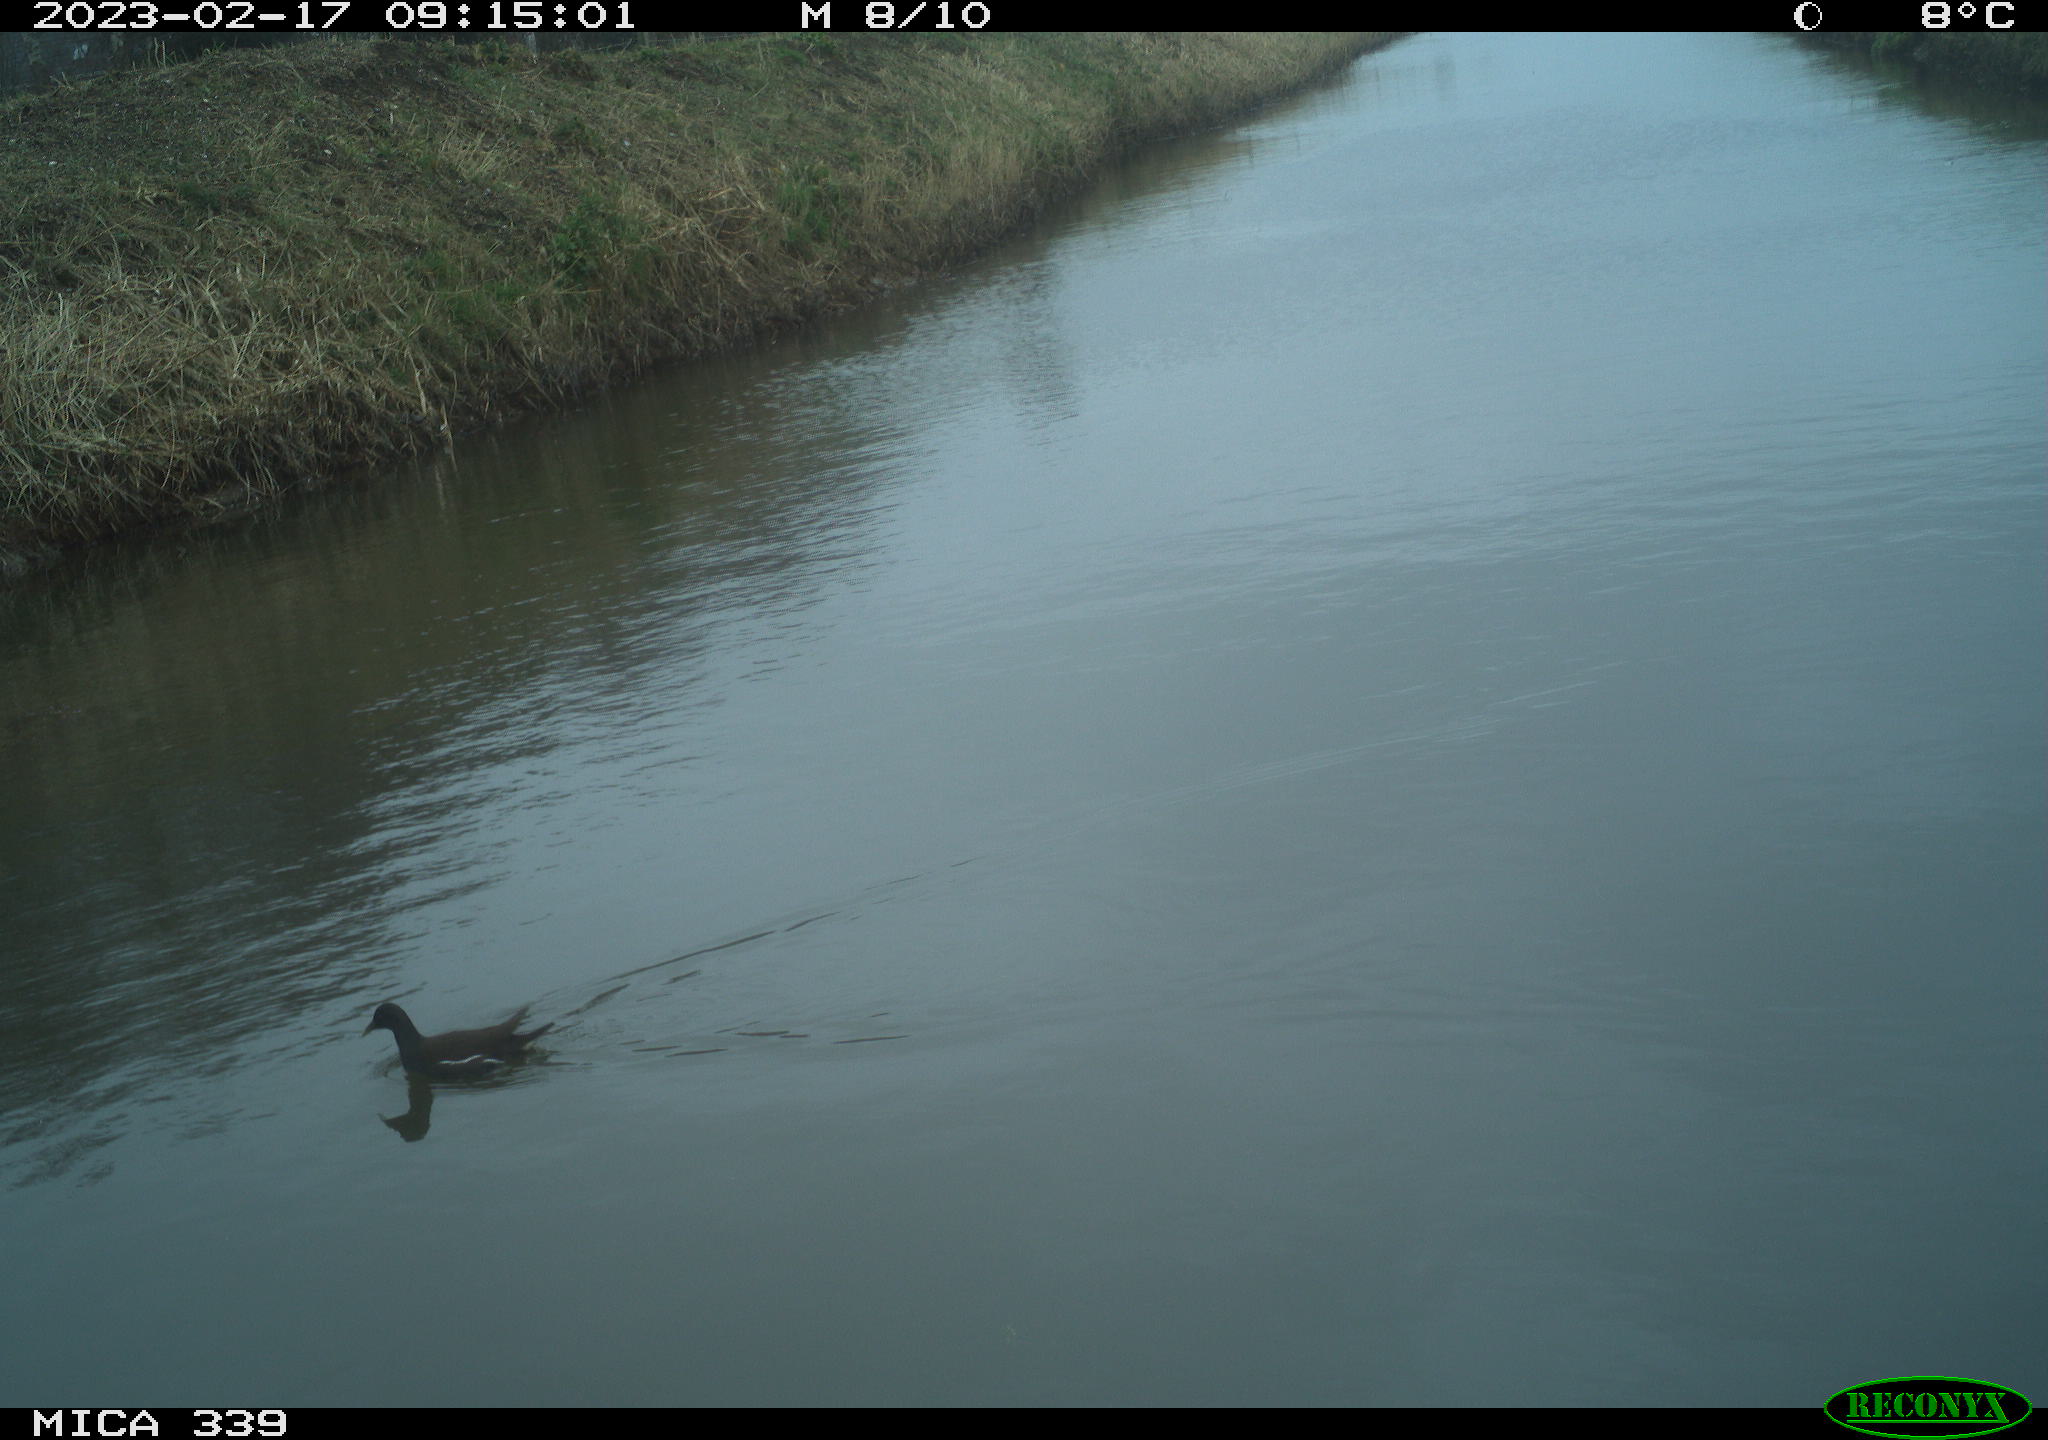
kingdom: Animalia
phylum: Chordata
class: Aves
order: Gruiformes
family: Rallidae
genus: Gallinula
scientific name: Gallinula chloropus
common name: Common moorhen
